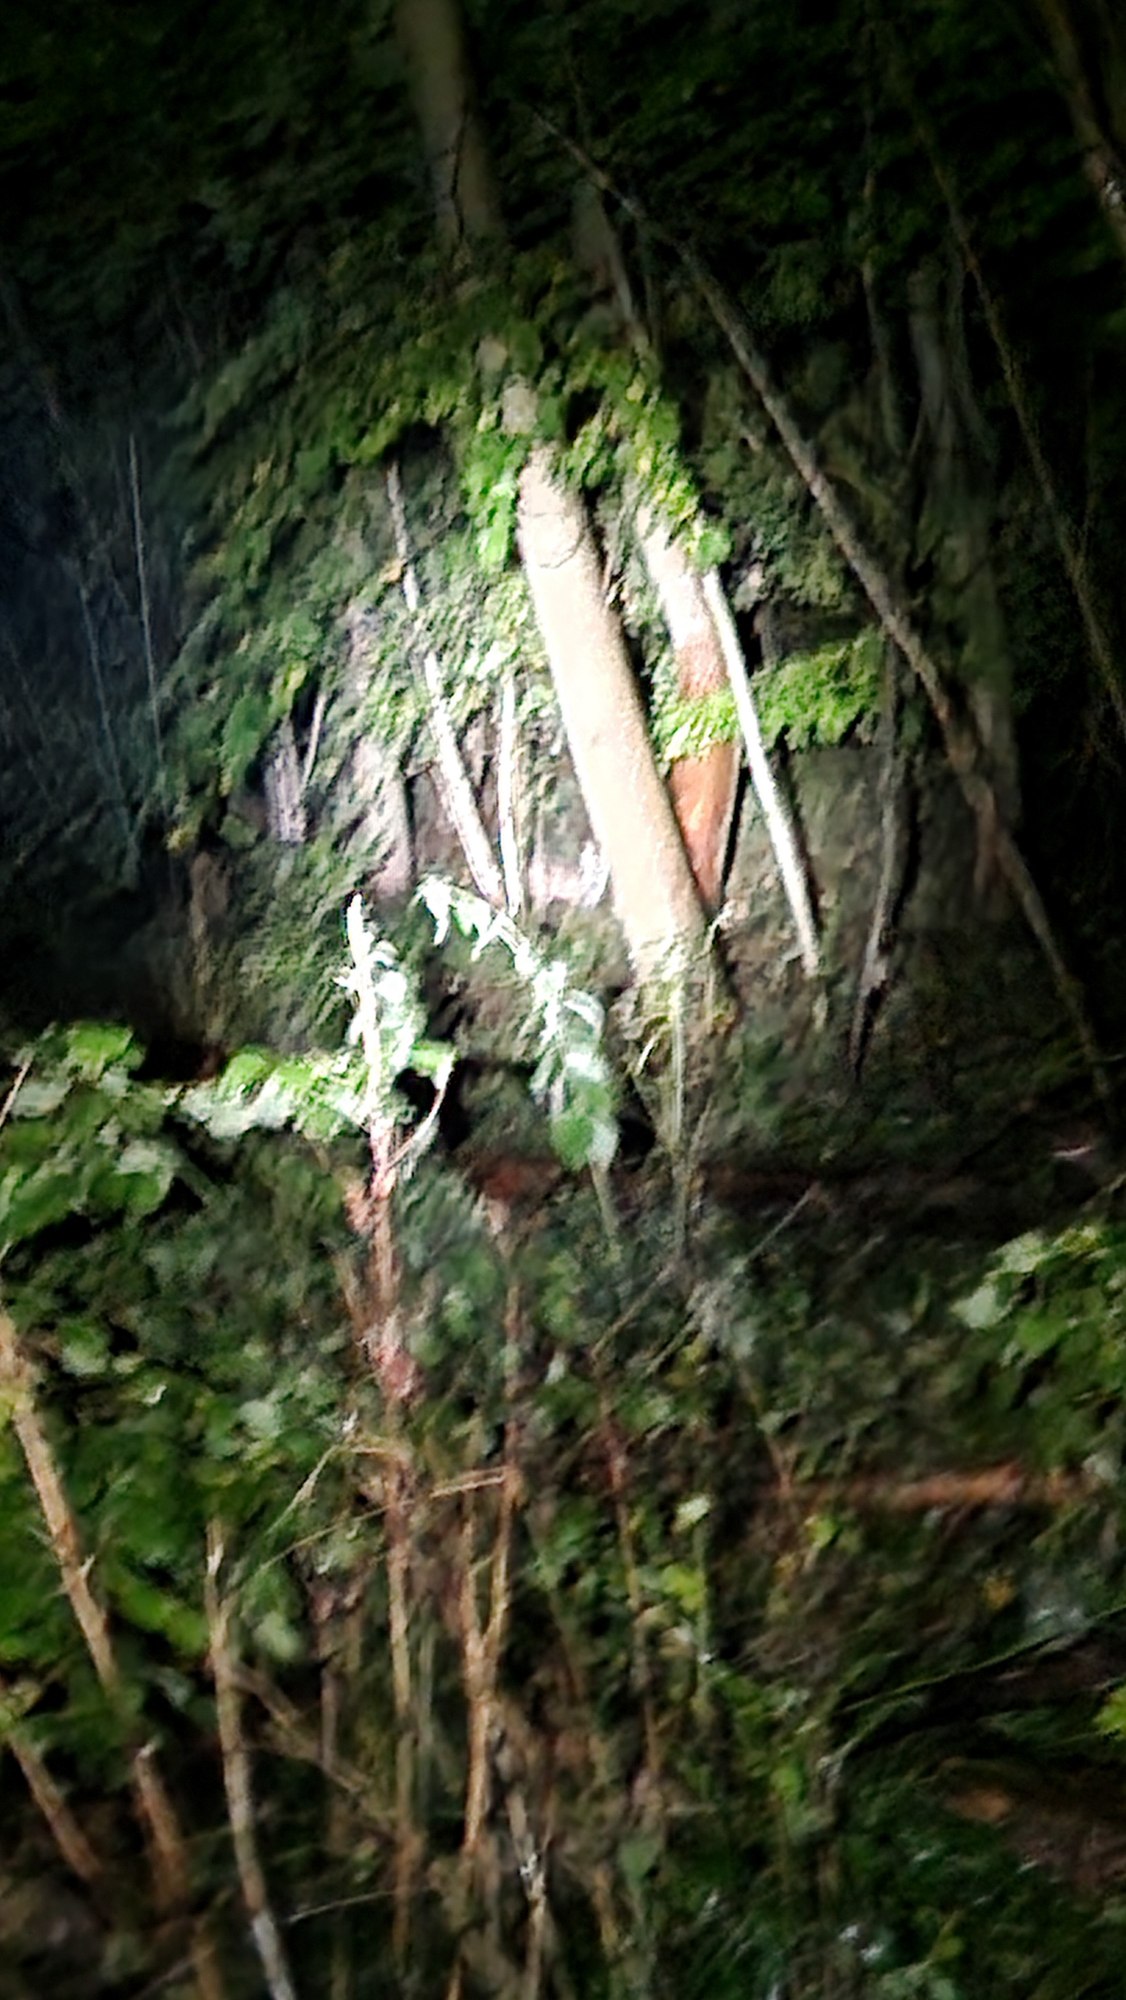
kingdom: Animalia
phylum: Chordata
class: Mammalia
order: Carnivora
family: Canidae
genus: Vulpes
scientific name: Vulpes vulpes
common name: Ræv
